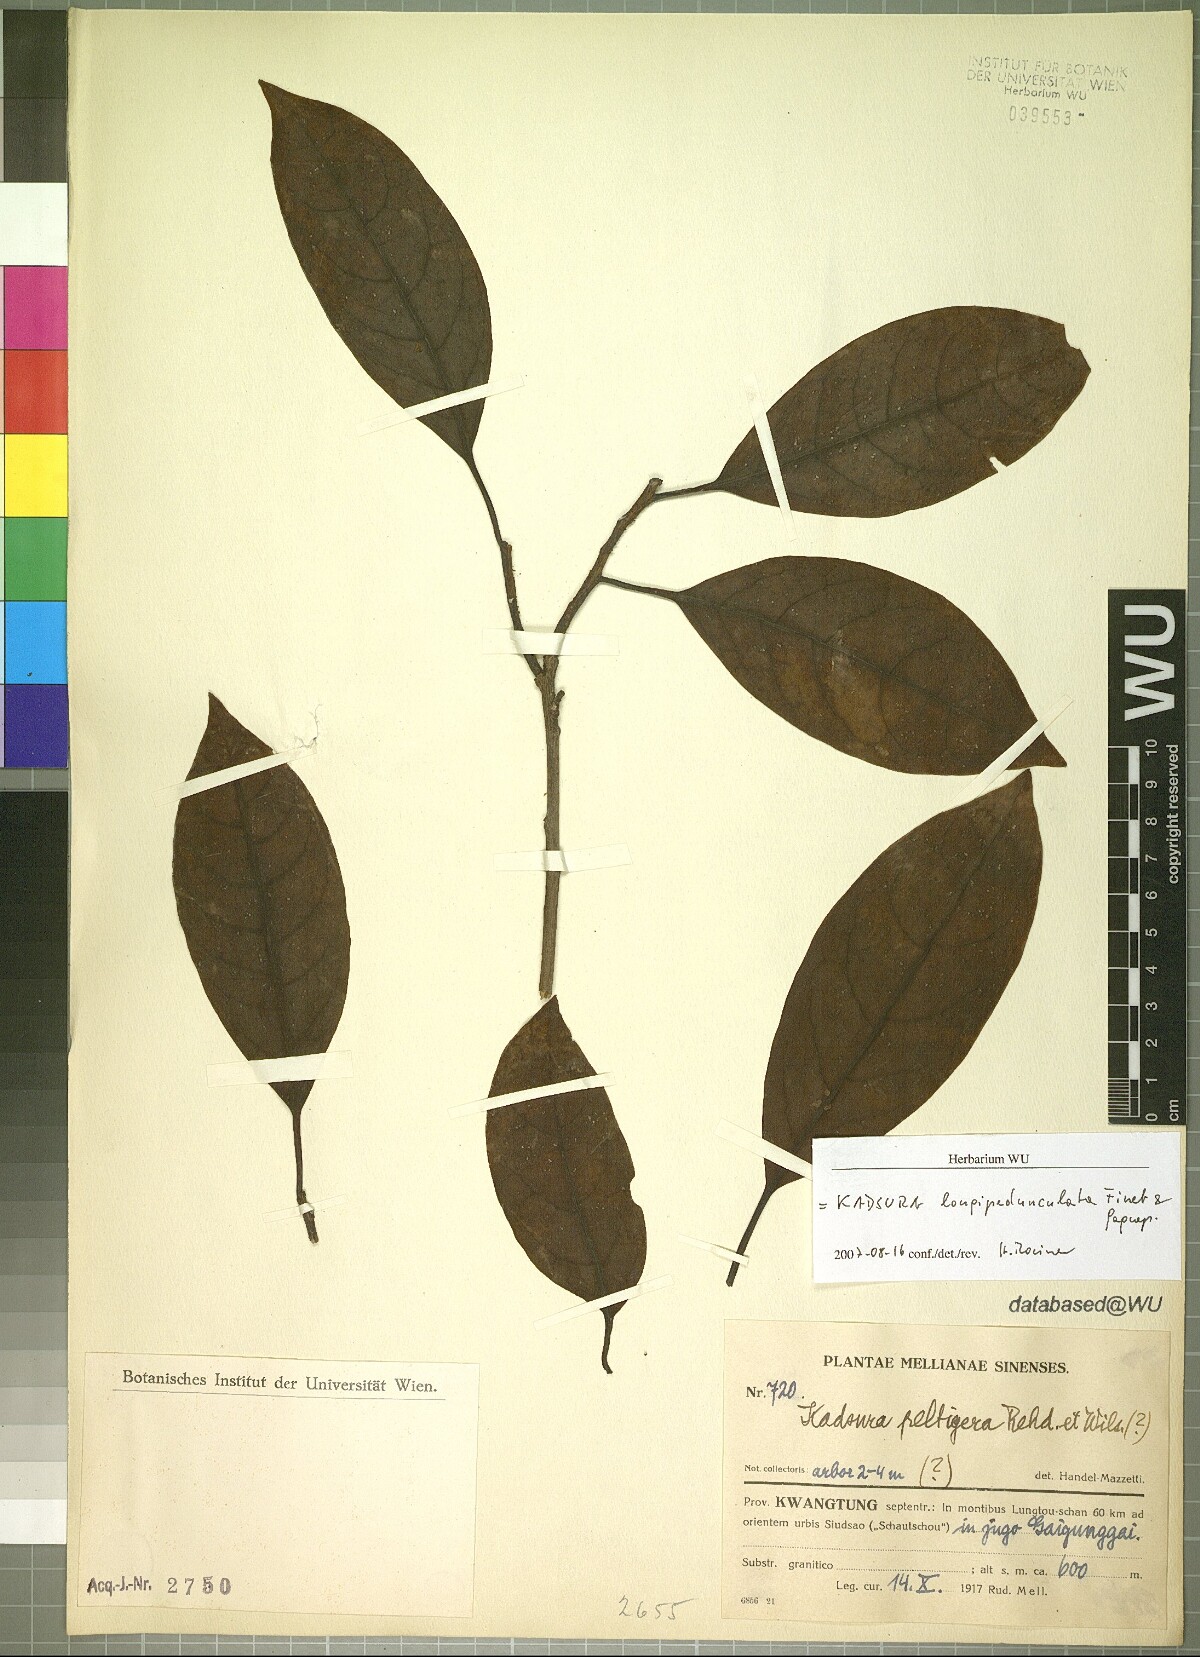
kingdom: Plantae
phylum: Tracheophyta
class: Magnoliopsida
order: Austrobaileyales
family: Schisandraceae
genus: Kadsura
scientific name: Kadsura longipedunculata
